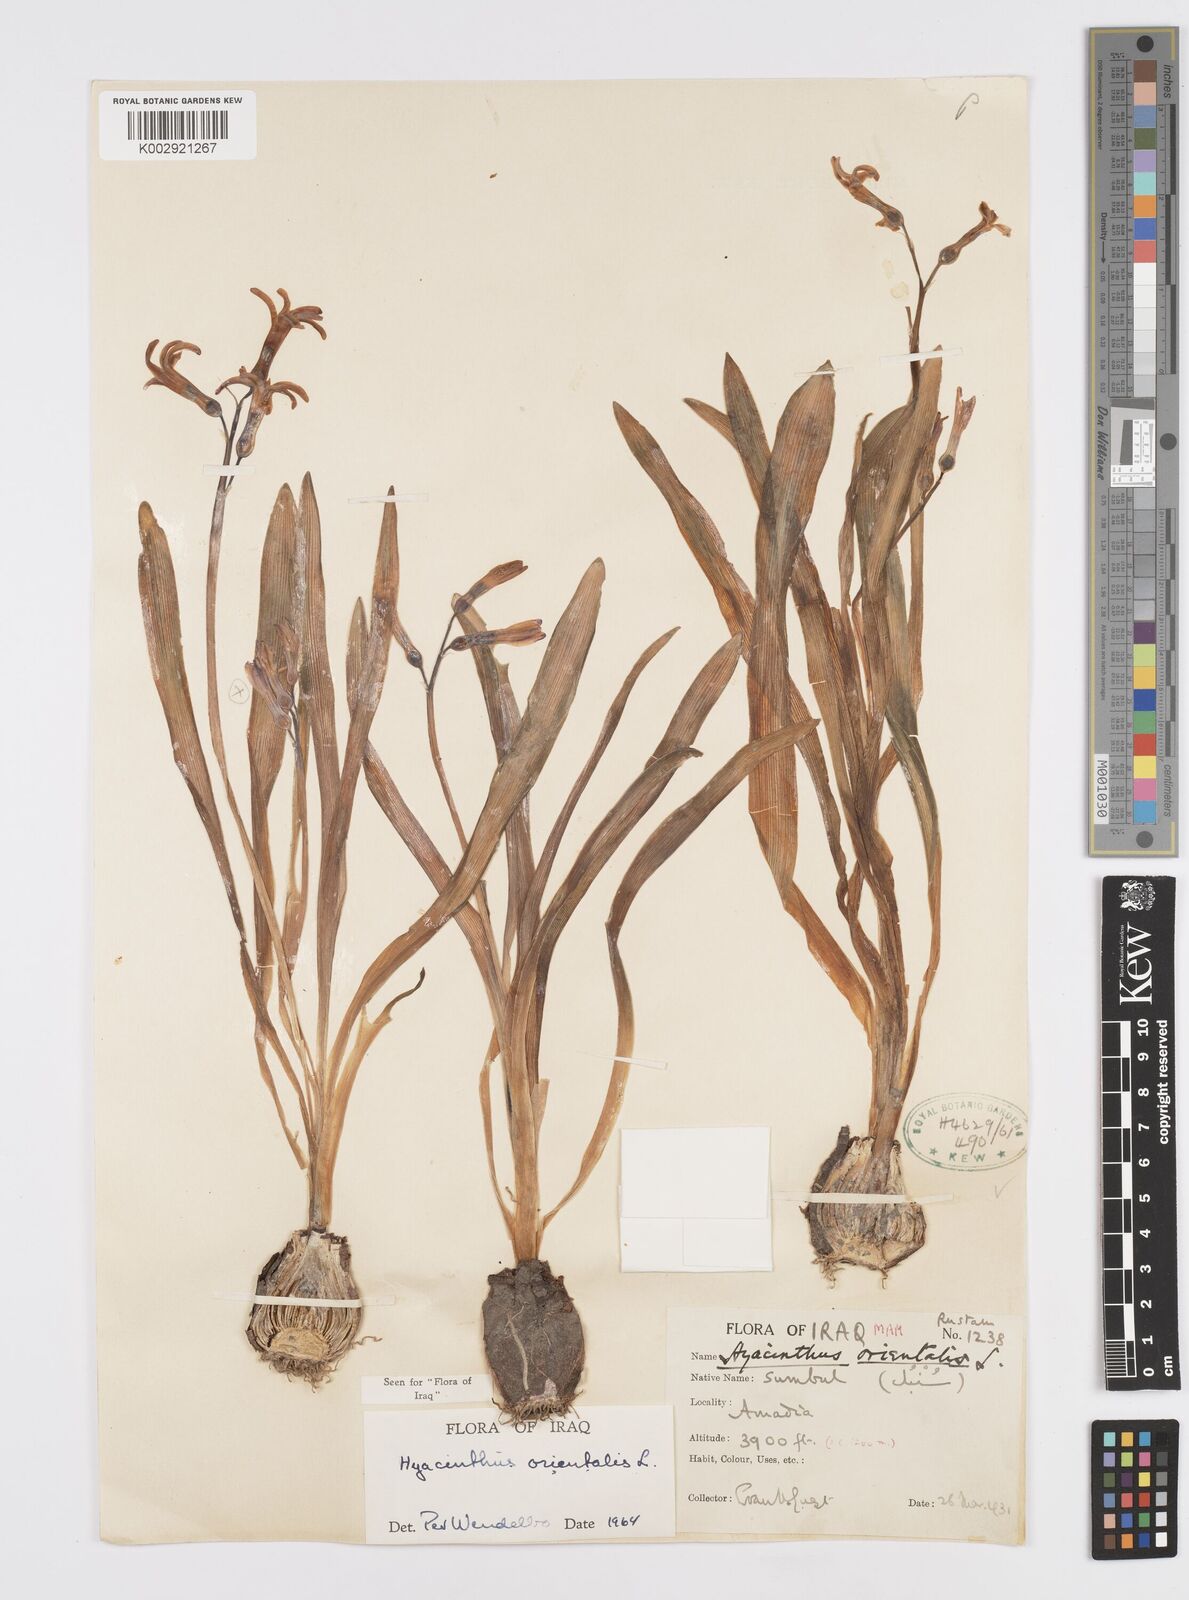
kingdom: Plantae
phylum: Tracheophyta
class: Liliopsida
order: Asparagales
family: Asparagaceae
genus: Hyacinthus
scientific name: Hyacinthus orientalis
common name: Hyacinth
